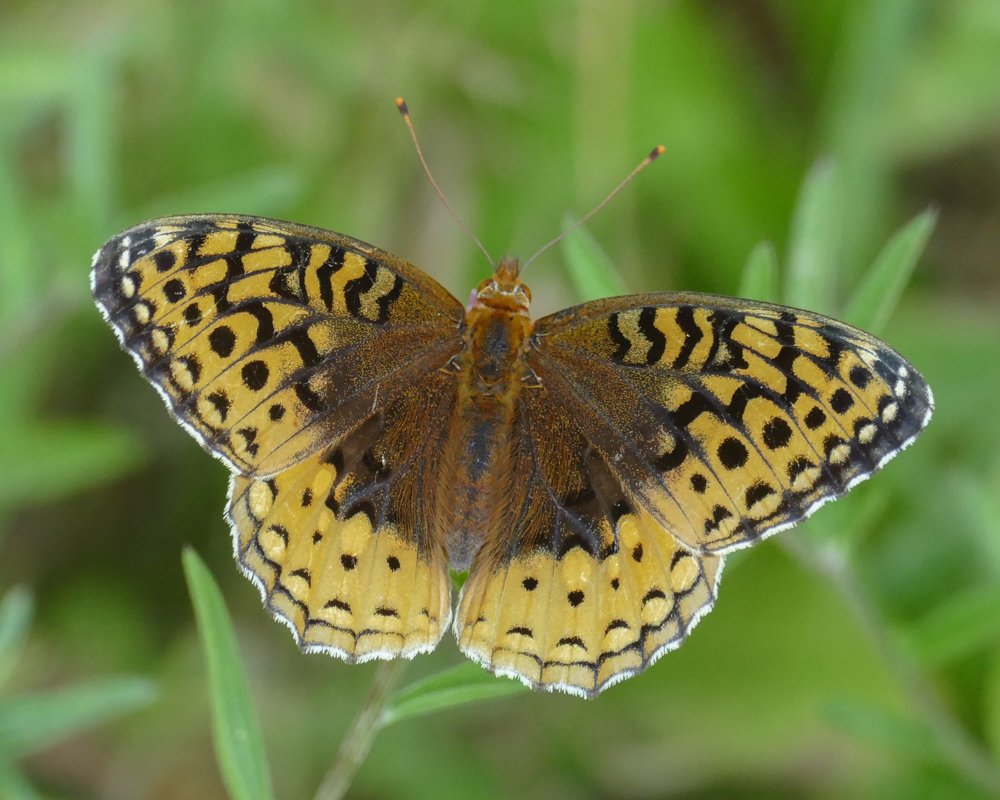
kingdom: Animalia
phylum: Arthropoda
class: Insecta
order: Lepidoptera
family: Nymphalidae
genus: Speyeria
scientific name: Speyeria cybele
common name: Great Spangled Fritillary
